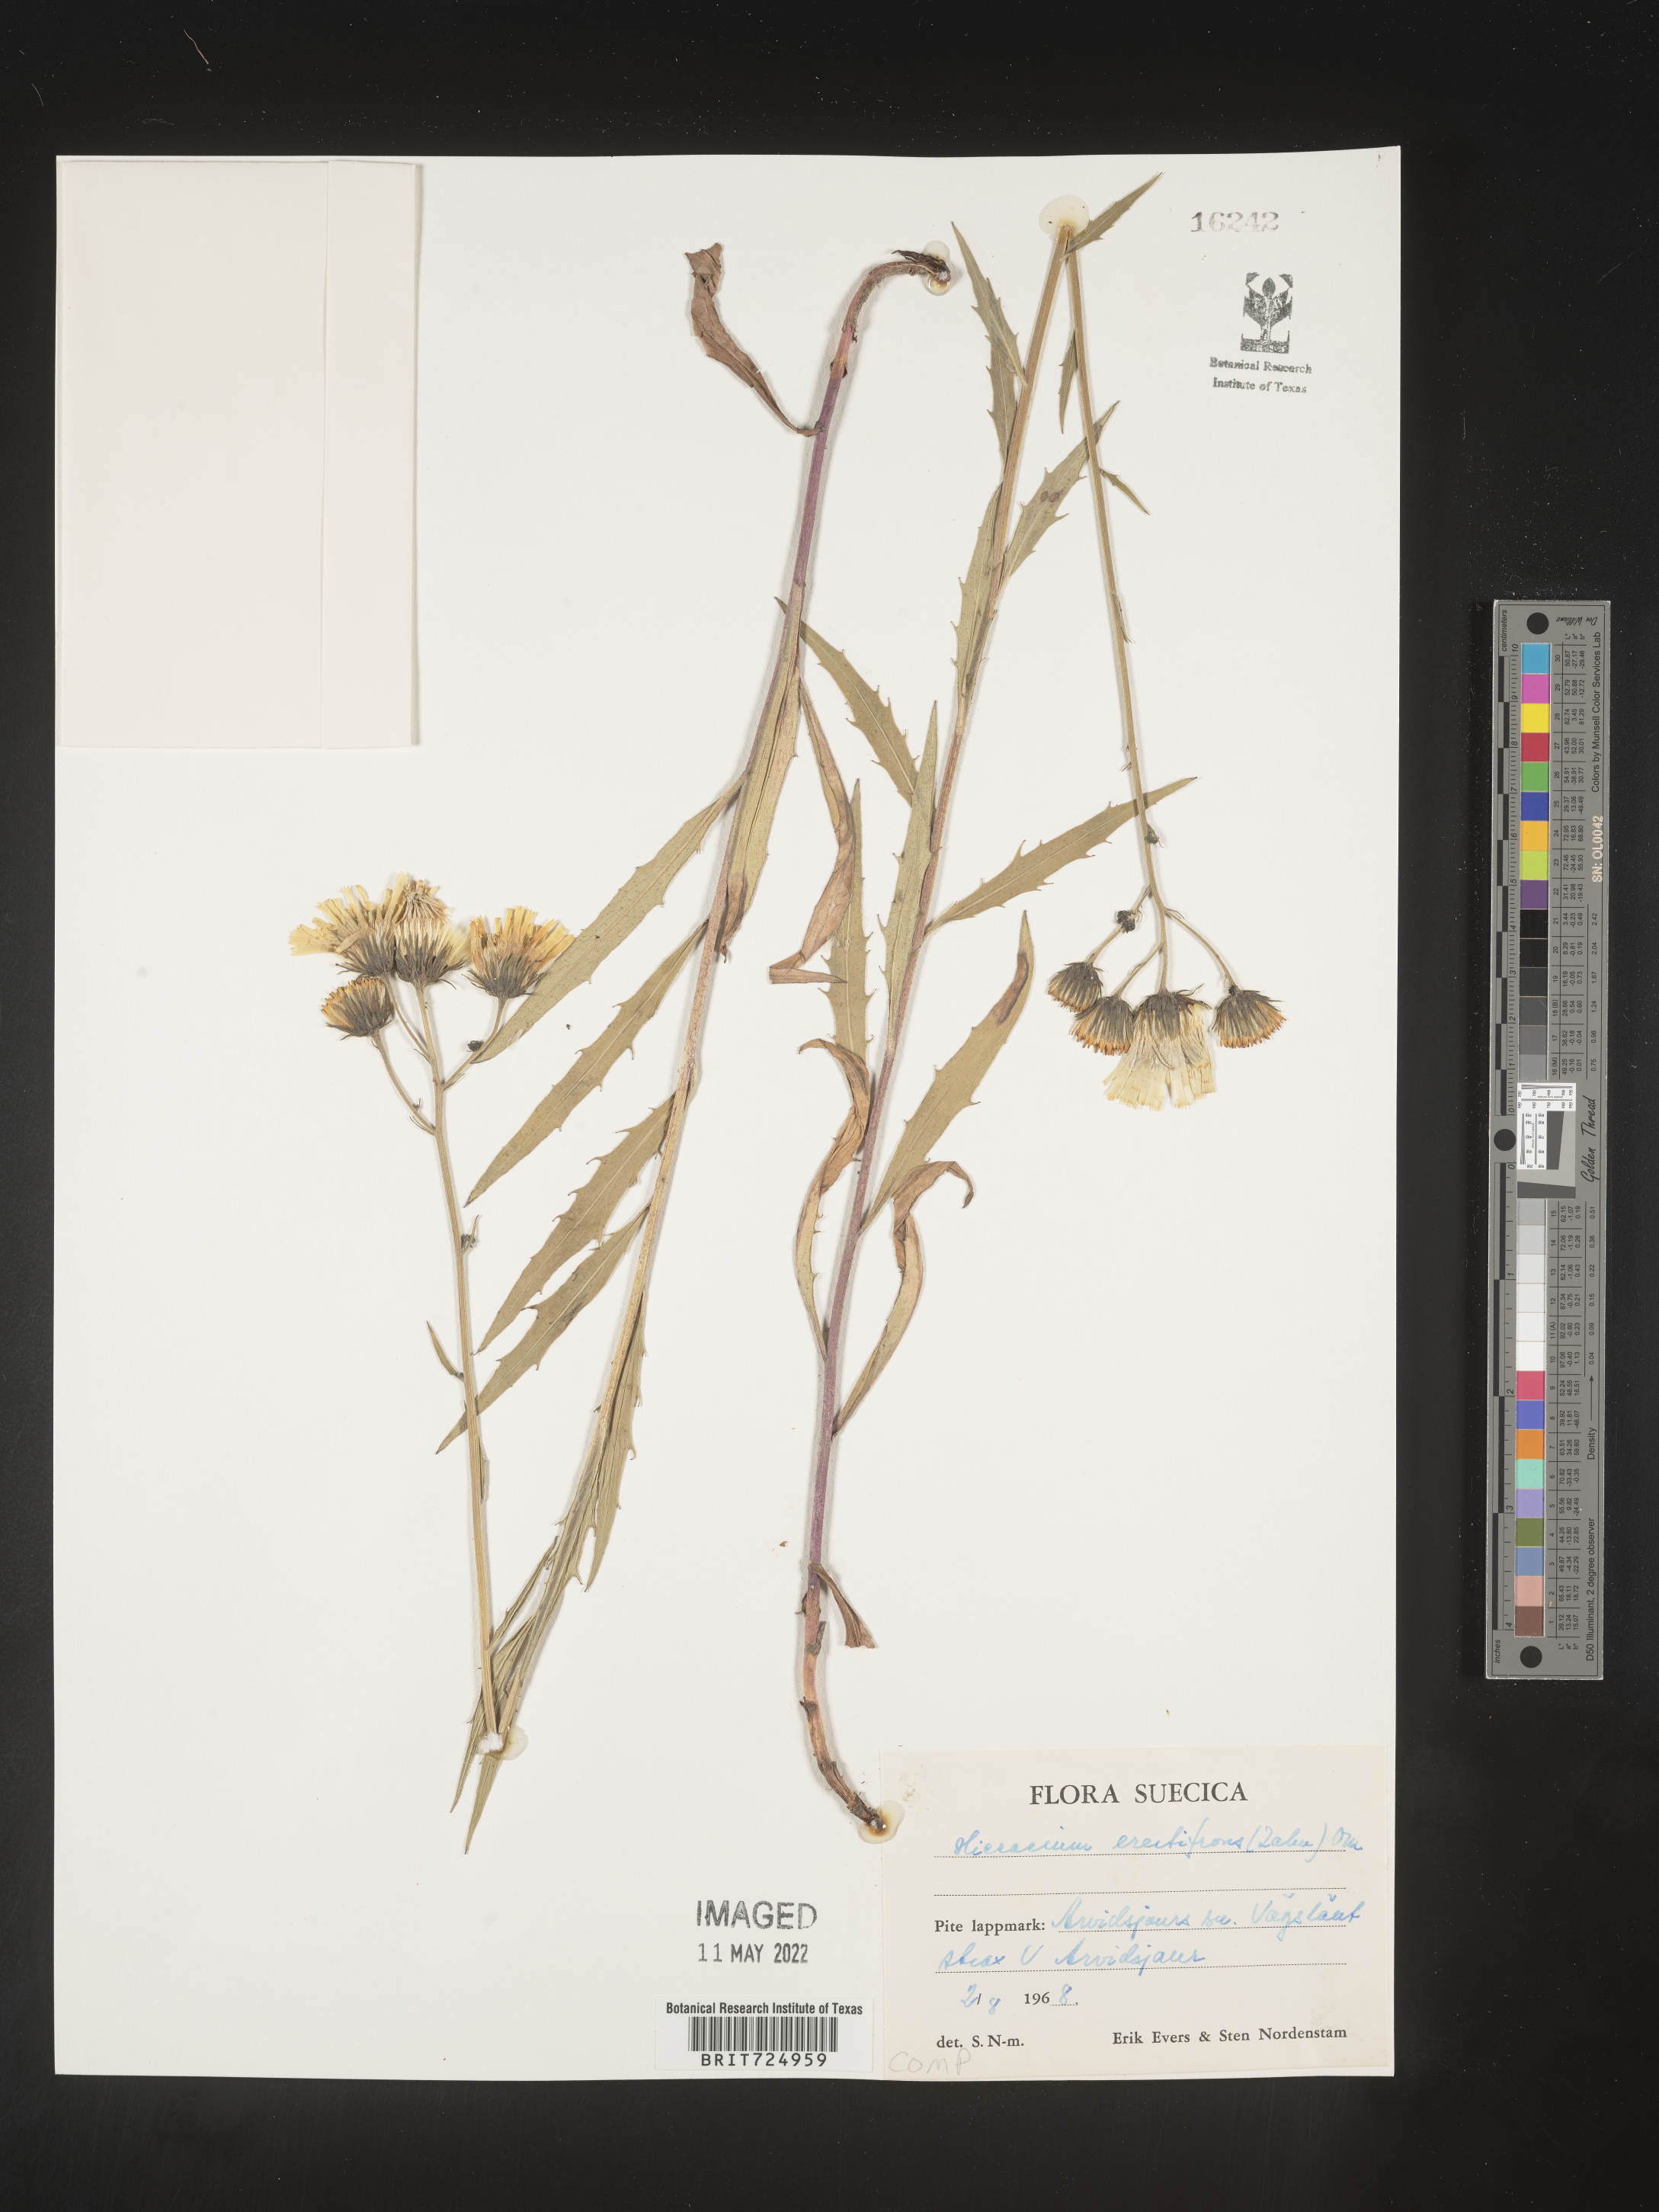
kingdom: Plantae
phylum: Tracheophyta
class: Magnoliopsida
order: Asterales
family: Asteraceae
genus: Hieracium
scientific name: Hieracium
